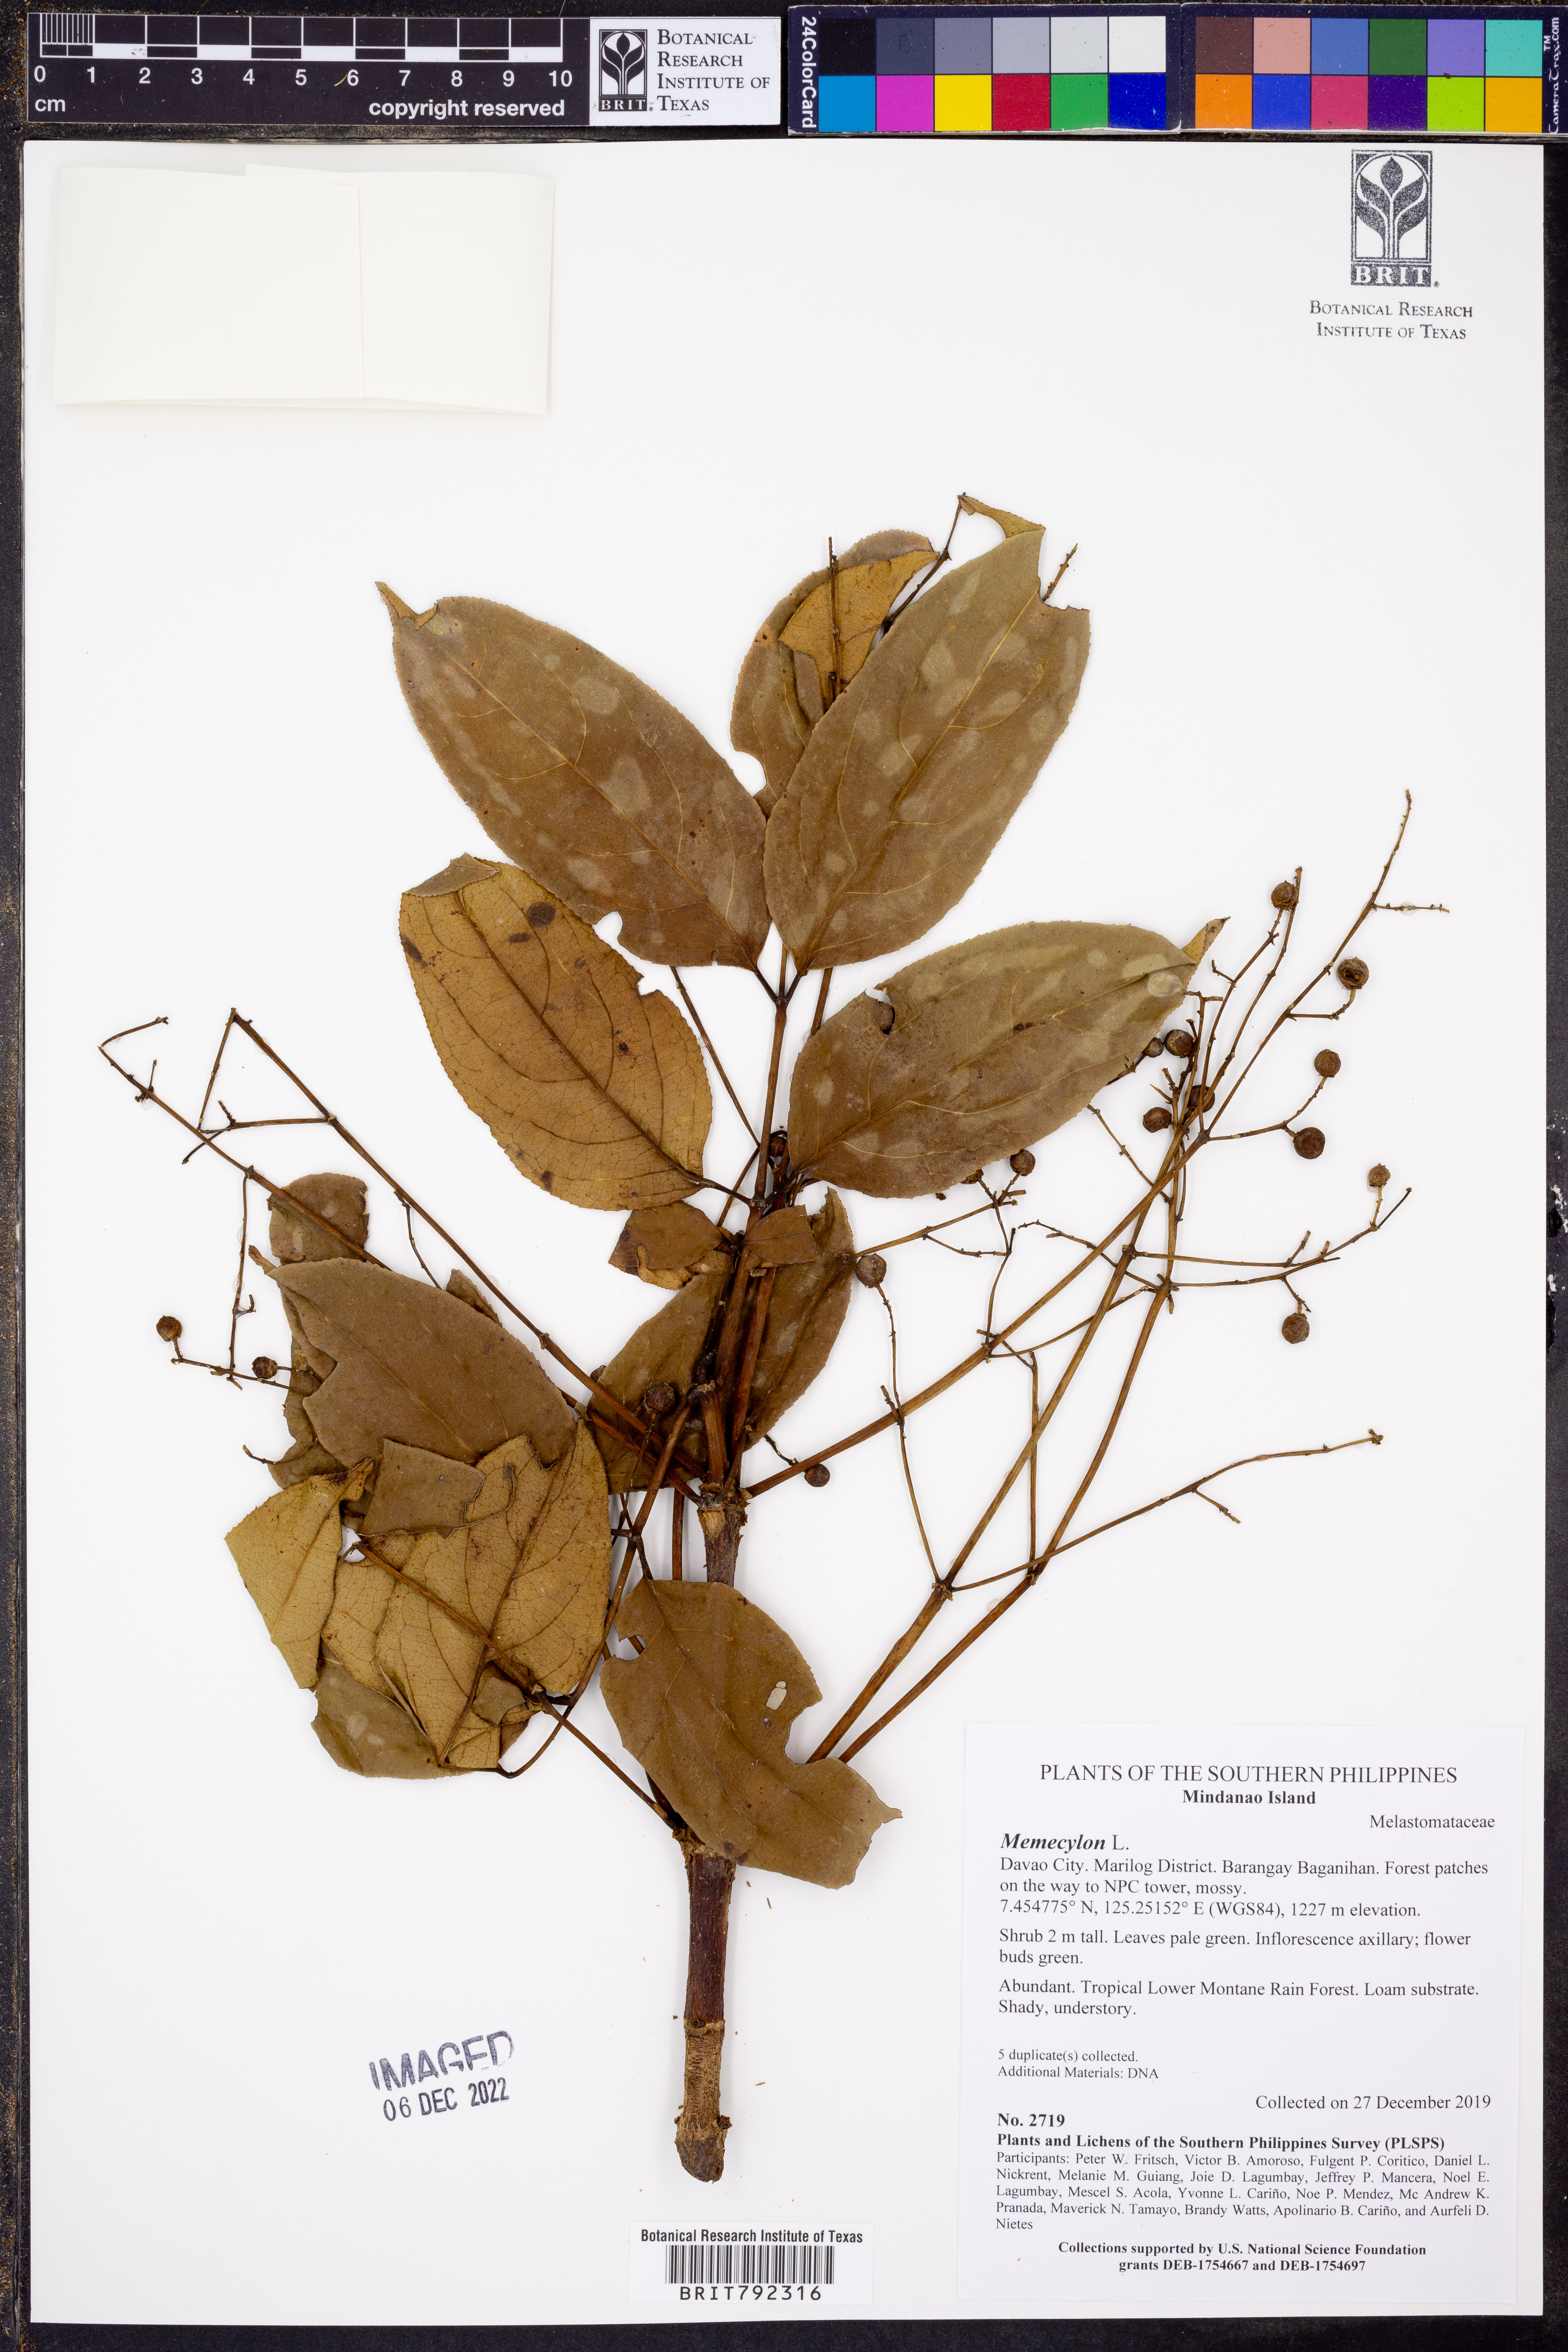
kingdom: Plantae
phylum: Tracheophyta
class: Magnoliopsida
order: Myrtales
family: Melastomataceae
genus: Memecylon
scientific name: Memecylon
